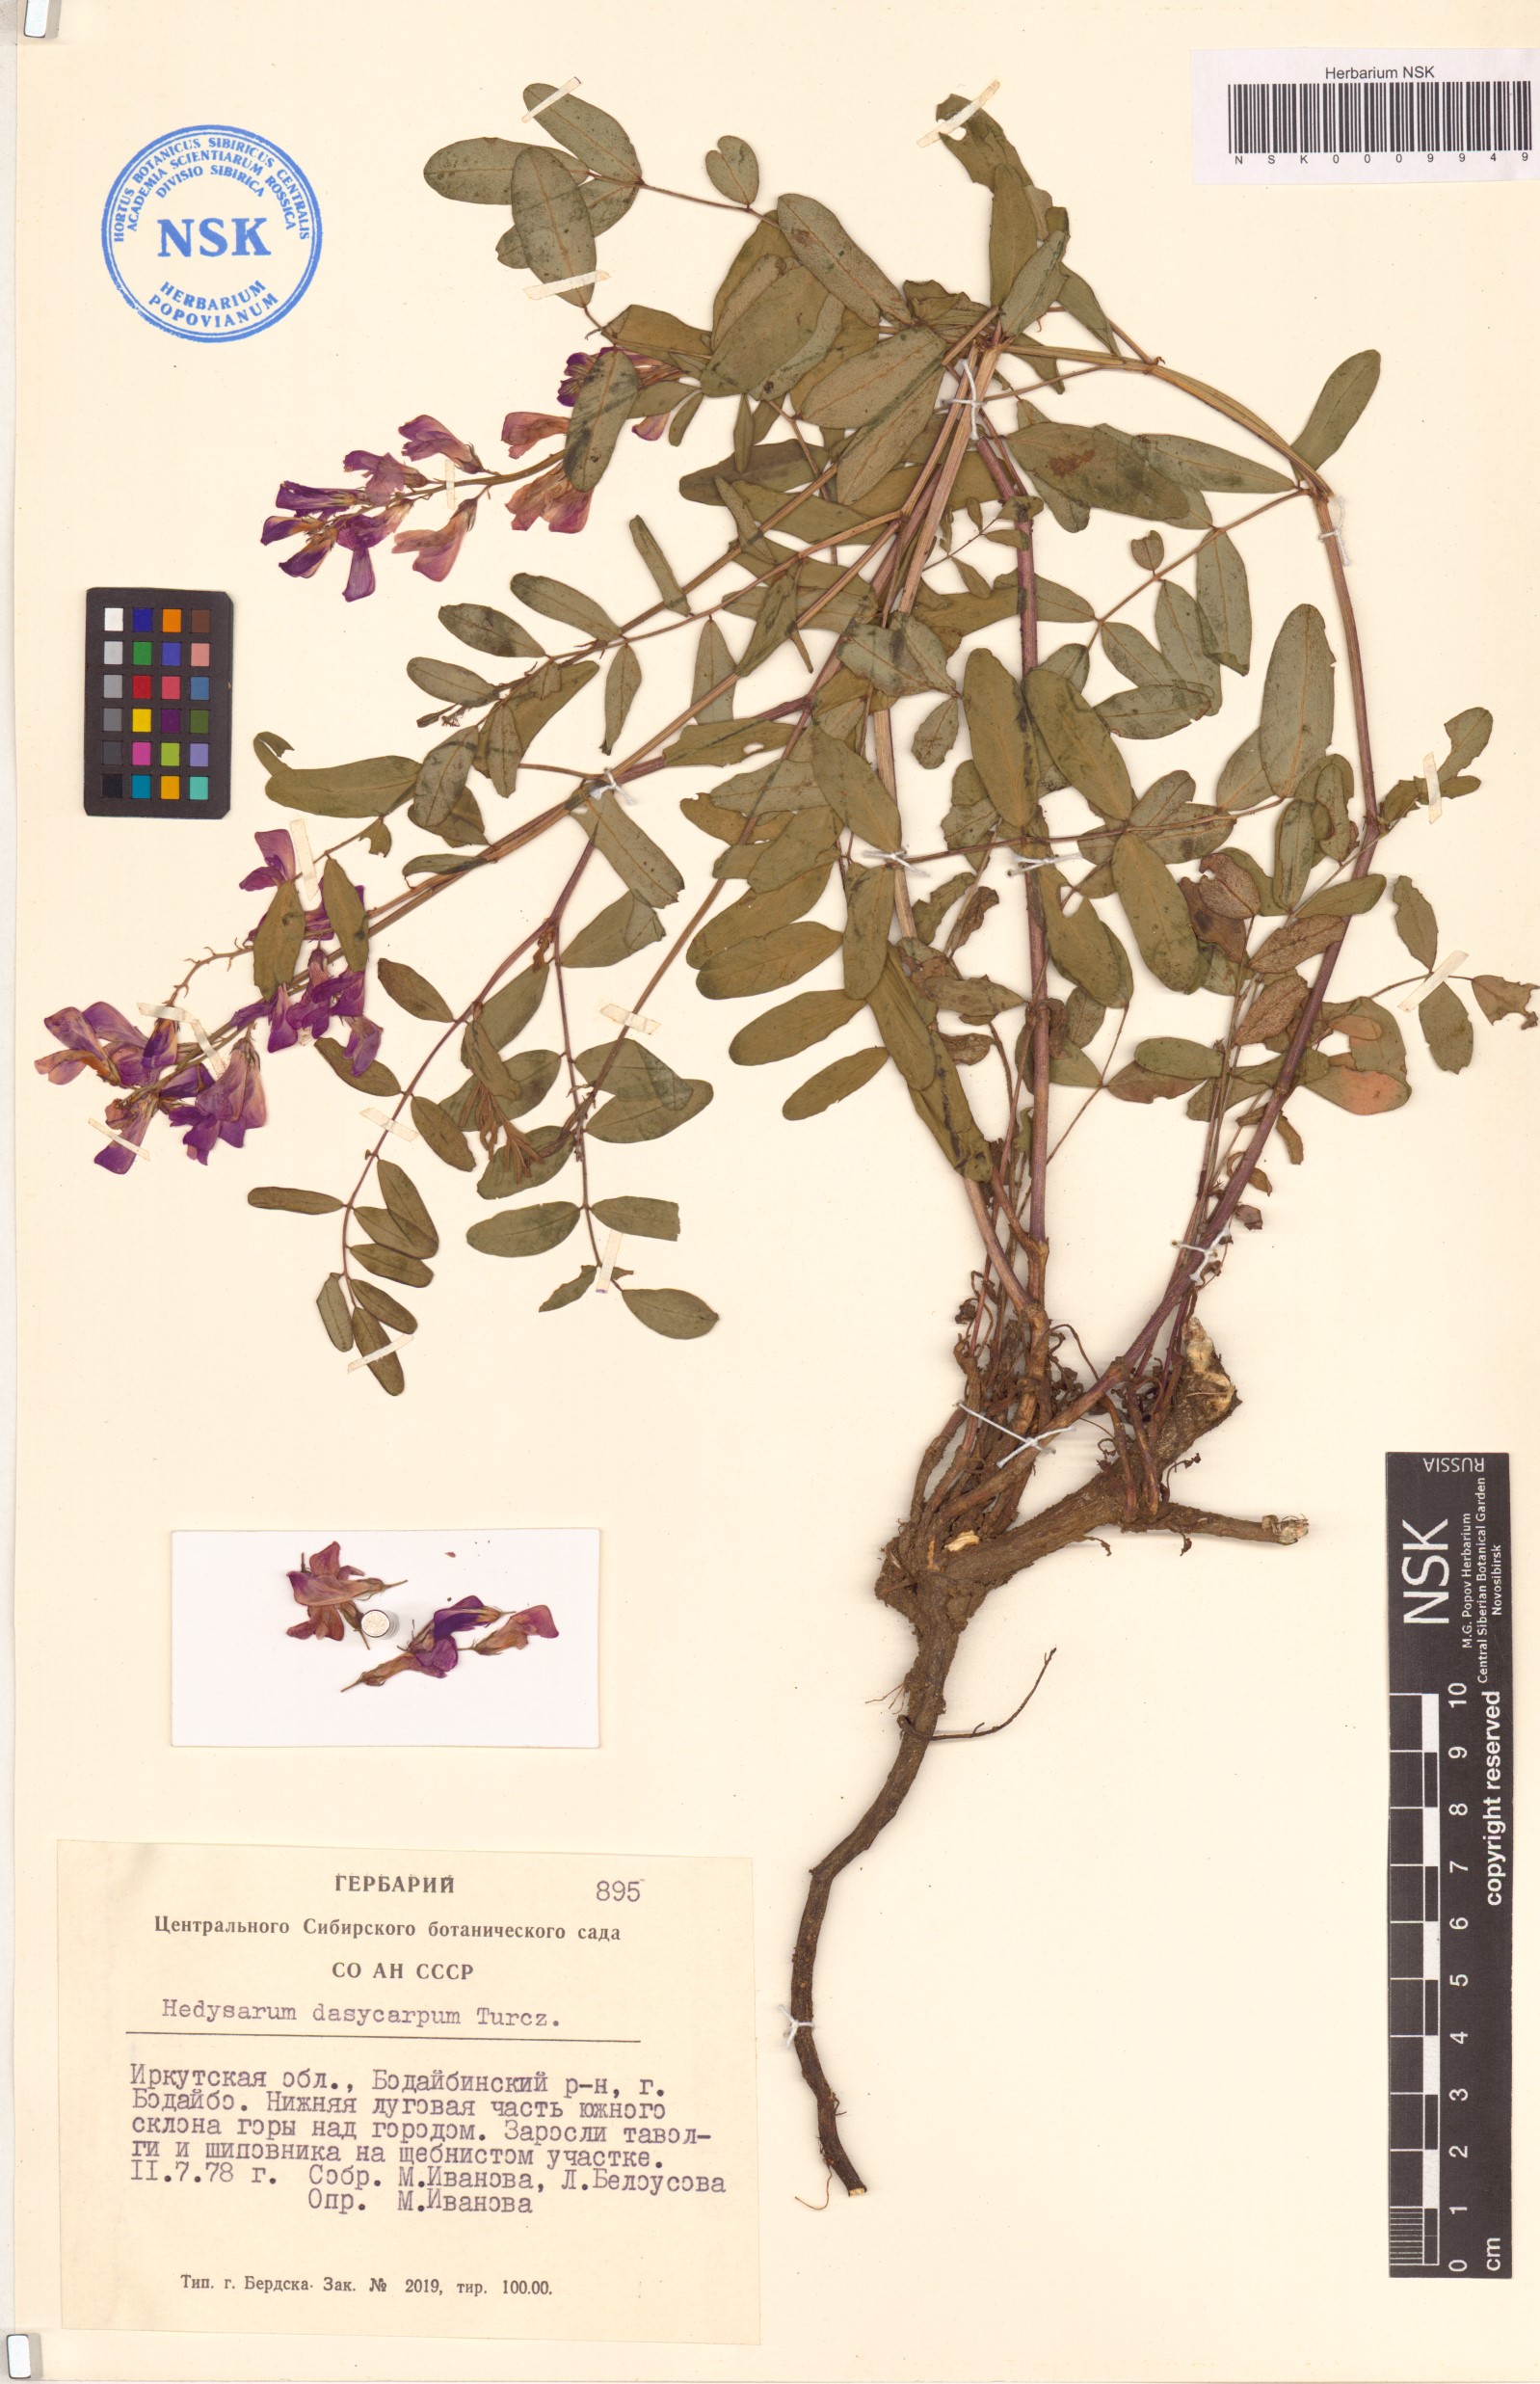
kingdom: Plantae
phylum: Tracheophyta
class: Magnoliopsida
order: Fabales
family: Fabaceae
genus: Hedysarum
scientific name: Hedysarum dasycarpum
